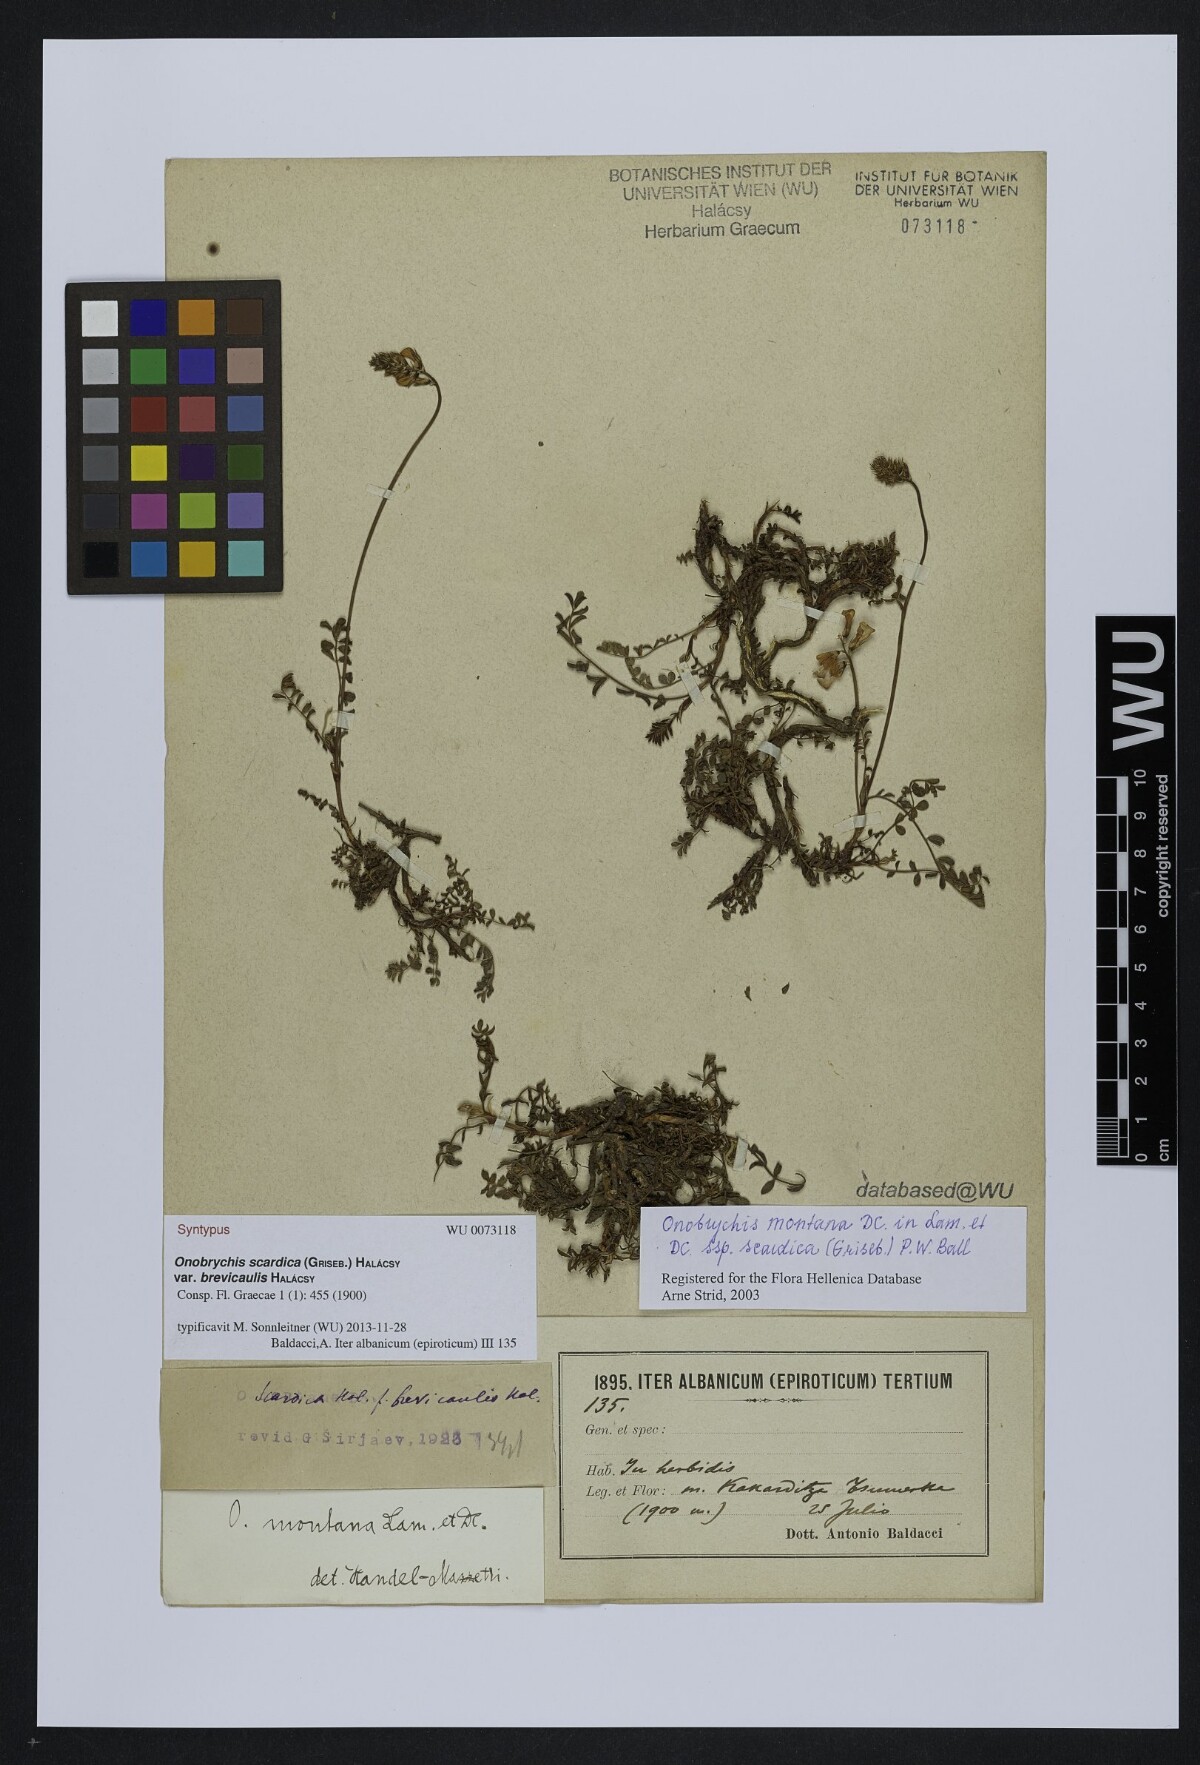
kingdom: Plantae
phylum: Tracheophyta
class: Magnoliopsida
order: Fabales
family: Fabaceae
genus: Onobrychis
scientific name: Onobrychis montana
